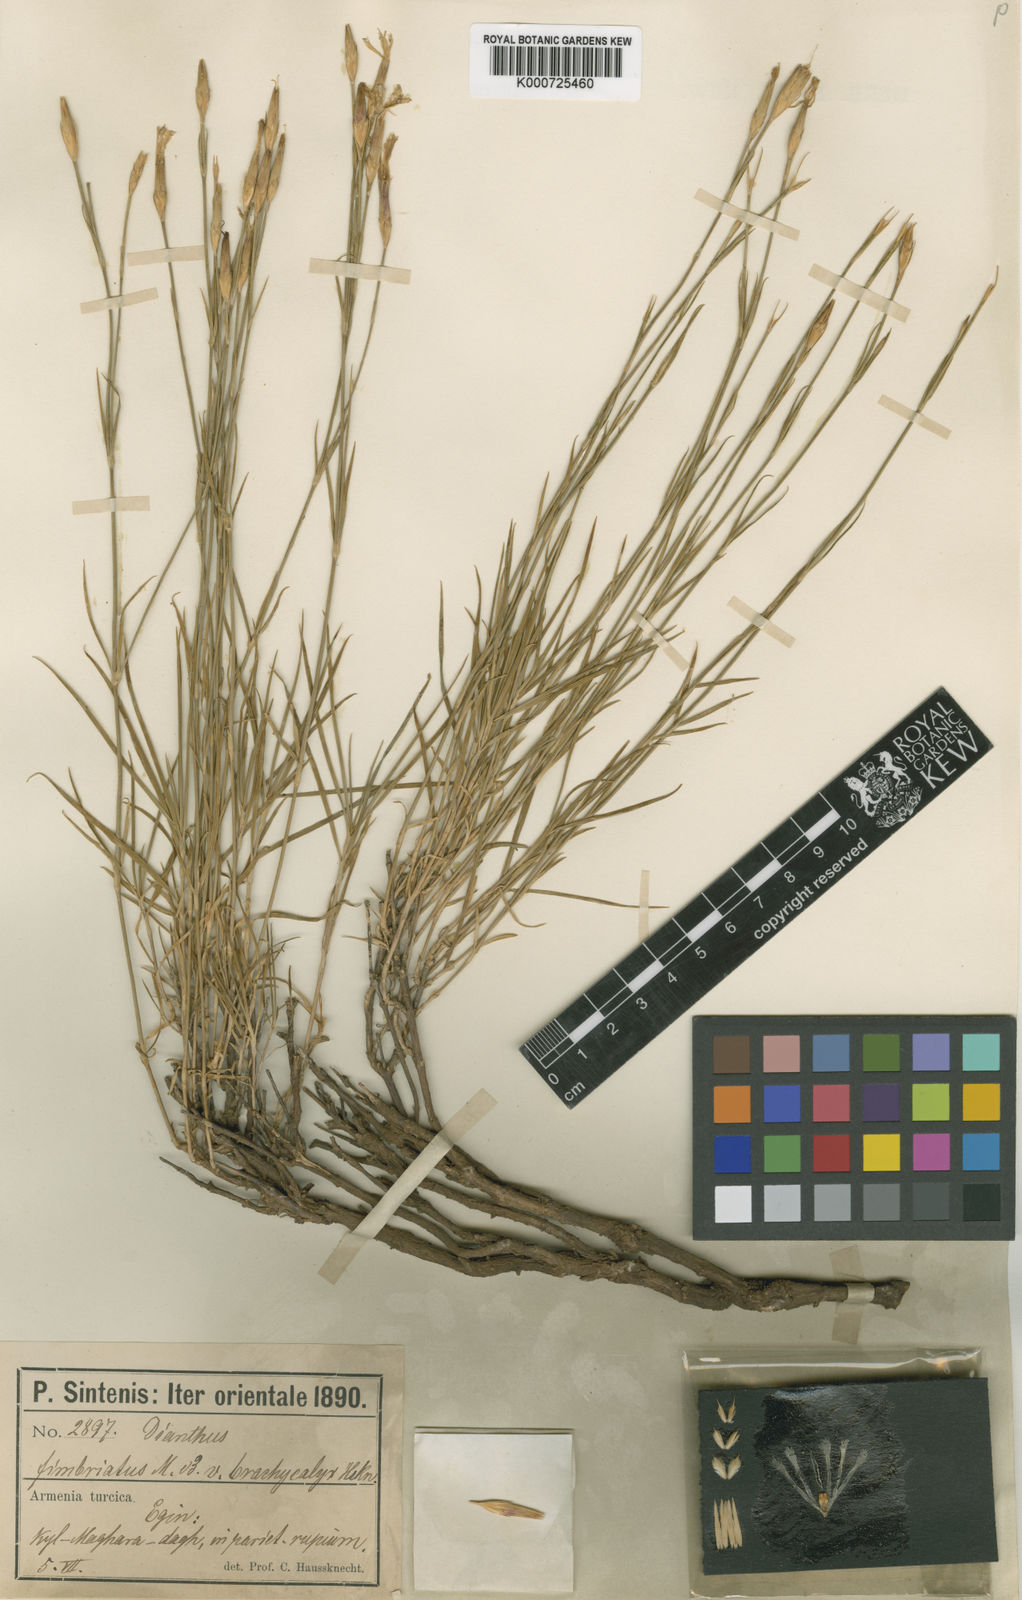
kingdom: Plantae
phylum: Tracheophyta
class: Magnoliopsida
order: Caryophyllales
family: Caryophyllaceae
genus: Dianthus
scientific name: Dianthus orientalis
